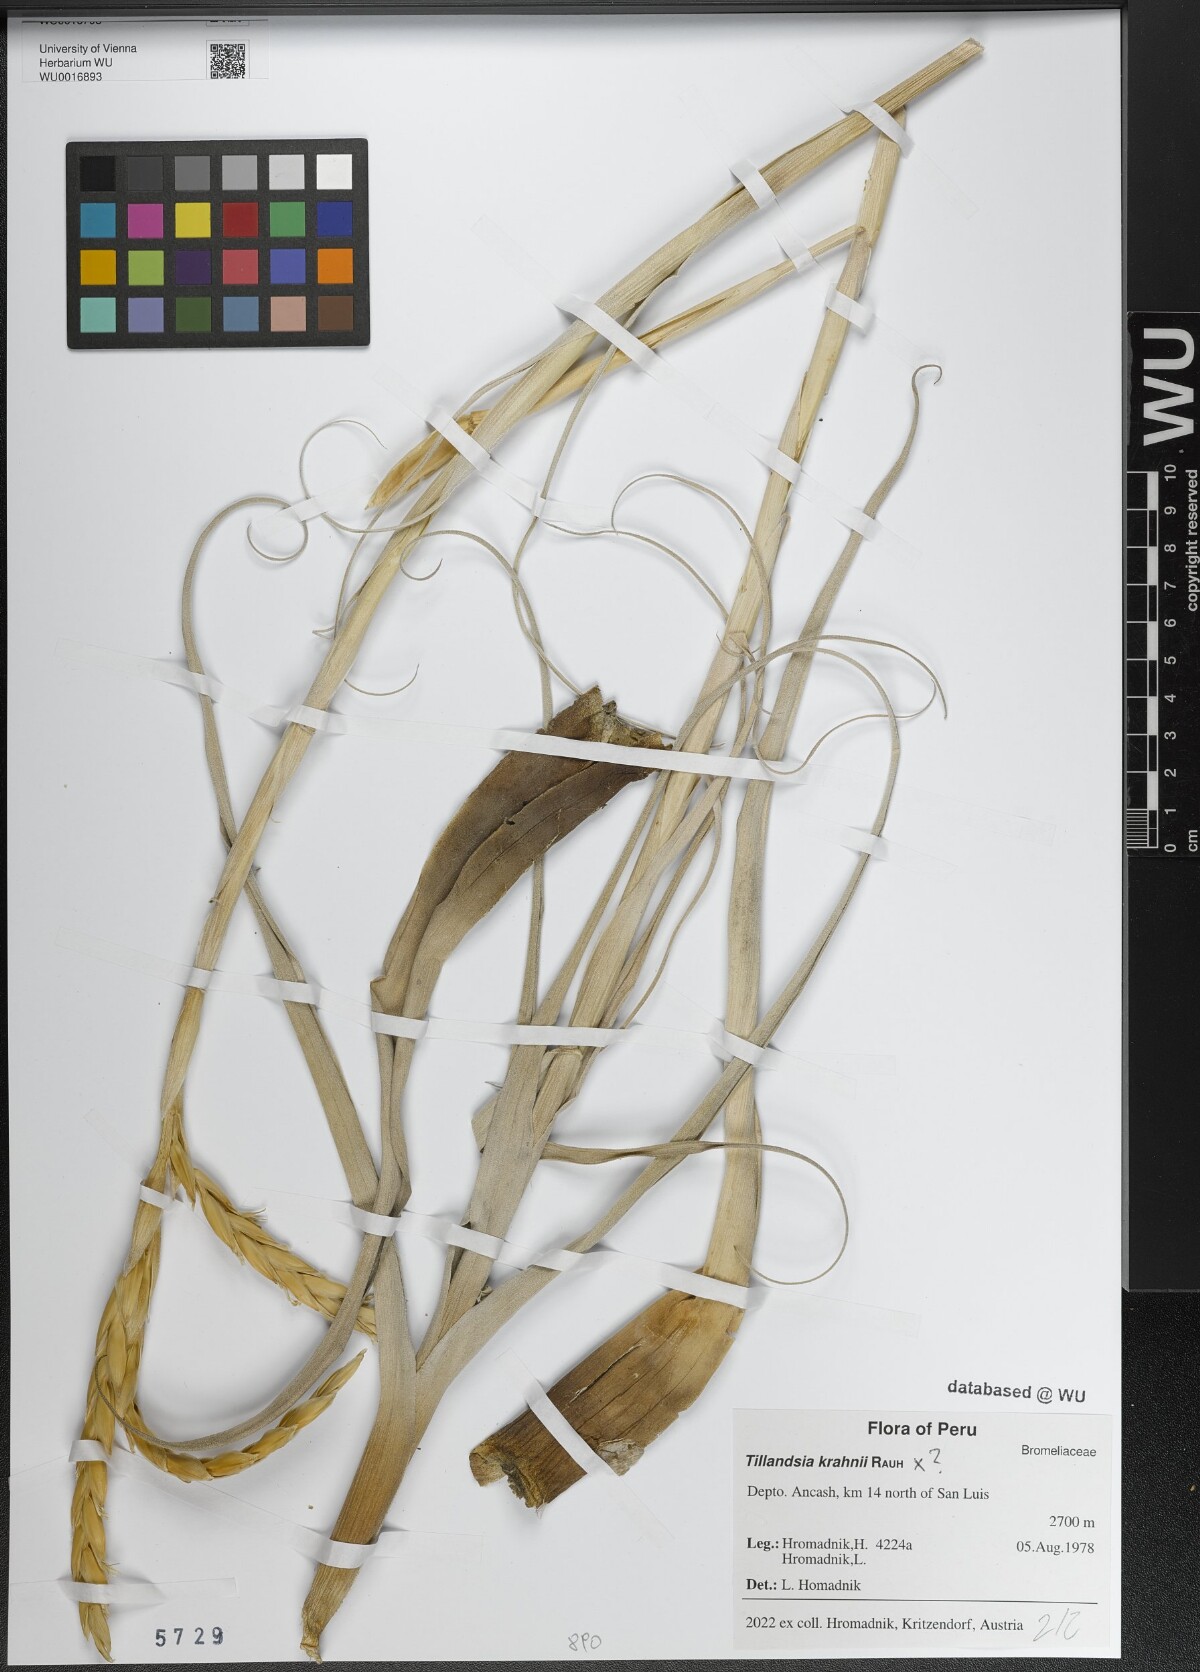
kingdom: Plantae
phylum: Tracheophyta
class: Liliopsida
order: Poales
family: Bromeliaceae
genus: Tillandsia
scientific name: Tillandsia krahnii
